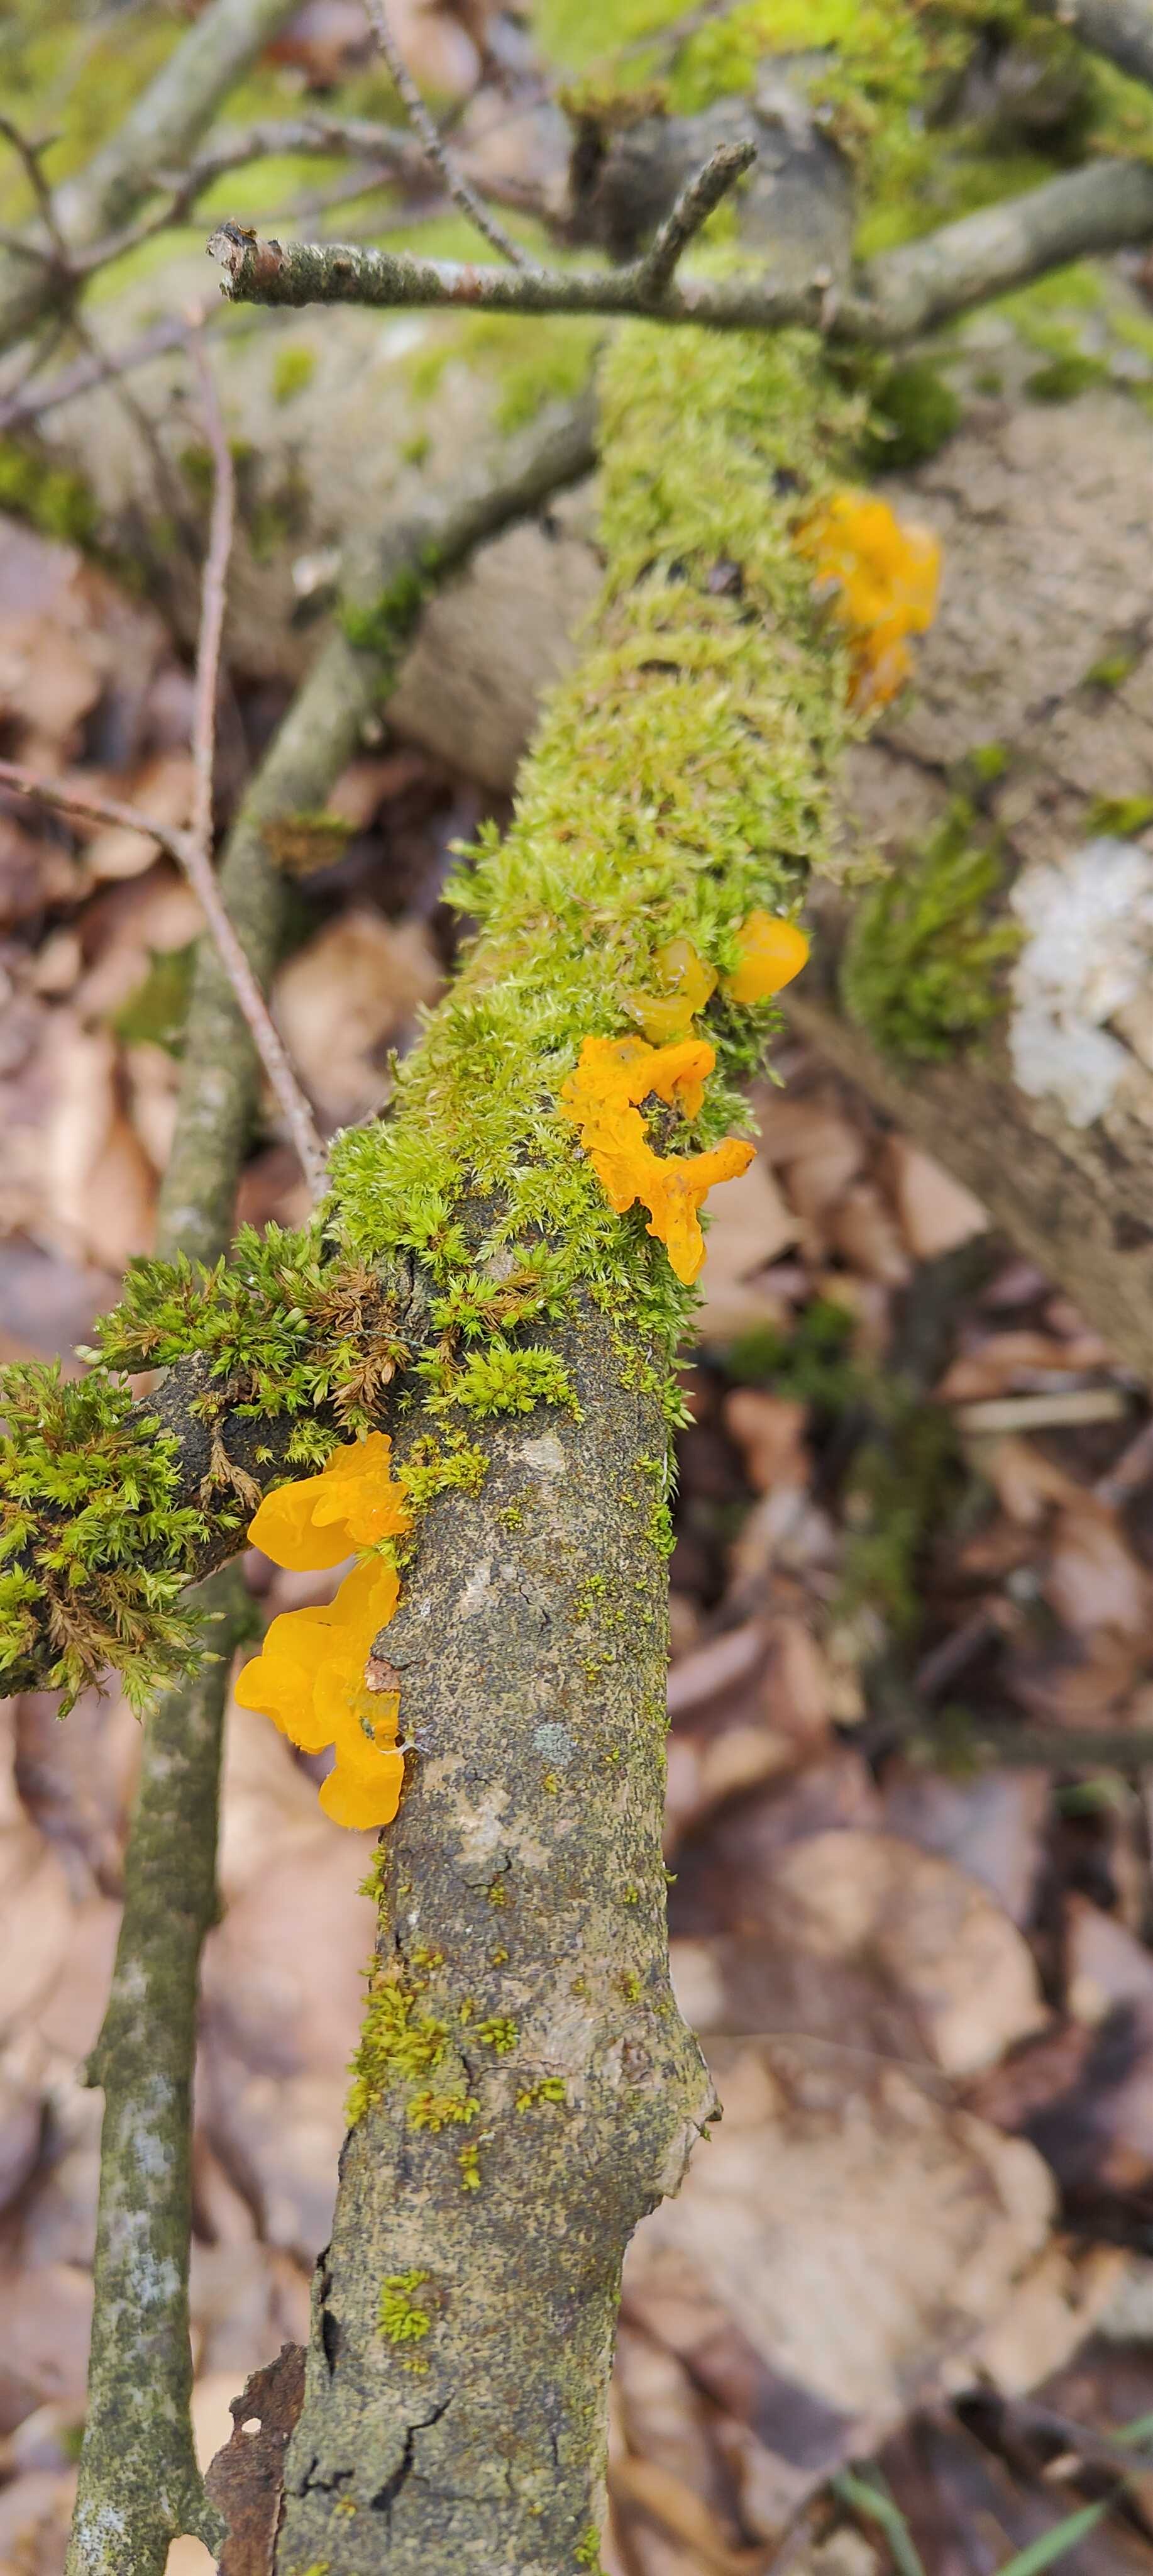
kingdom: Fungi
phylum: Basidiomycota
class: Tremellomycetes
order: Tremellales
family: Tremellaceae
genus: Tremella
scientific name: Tremella mesenterica
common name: gul bævresvamp
